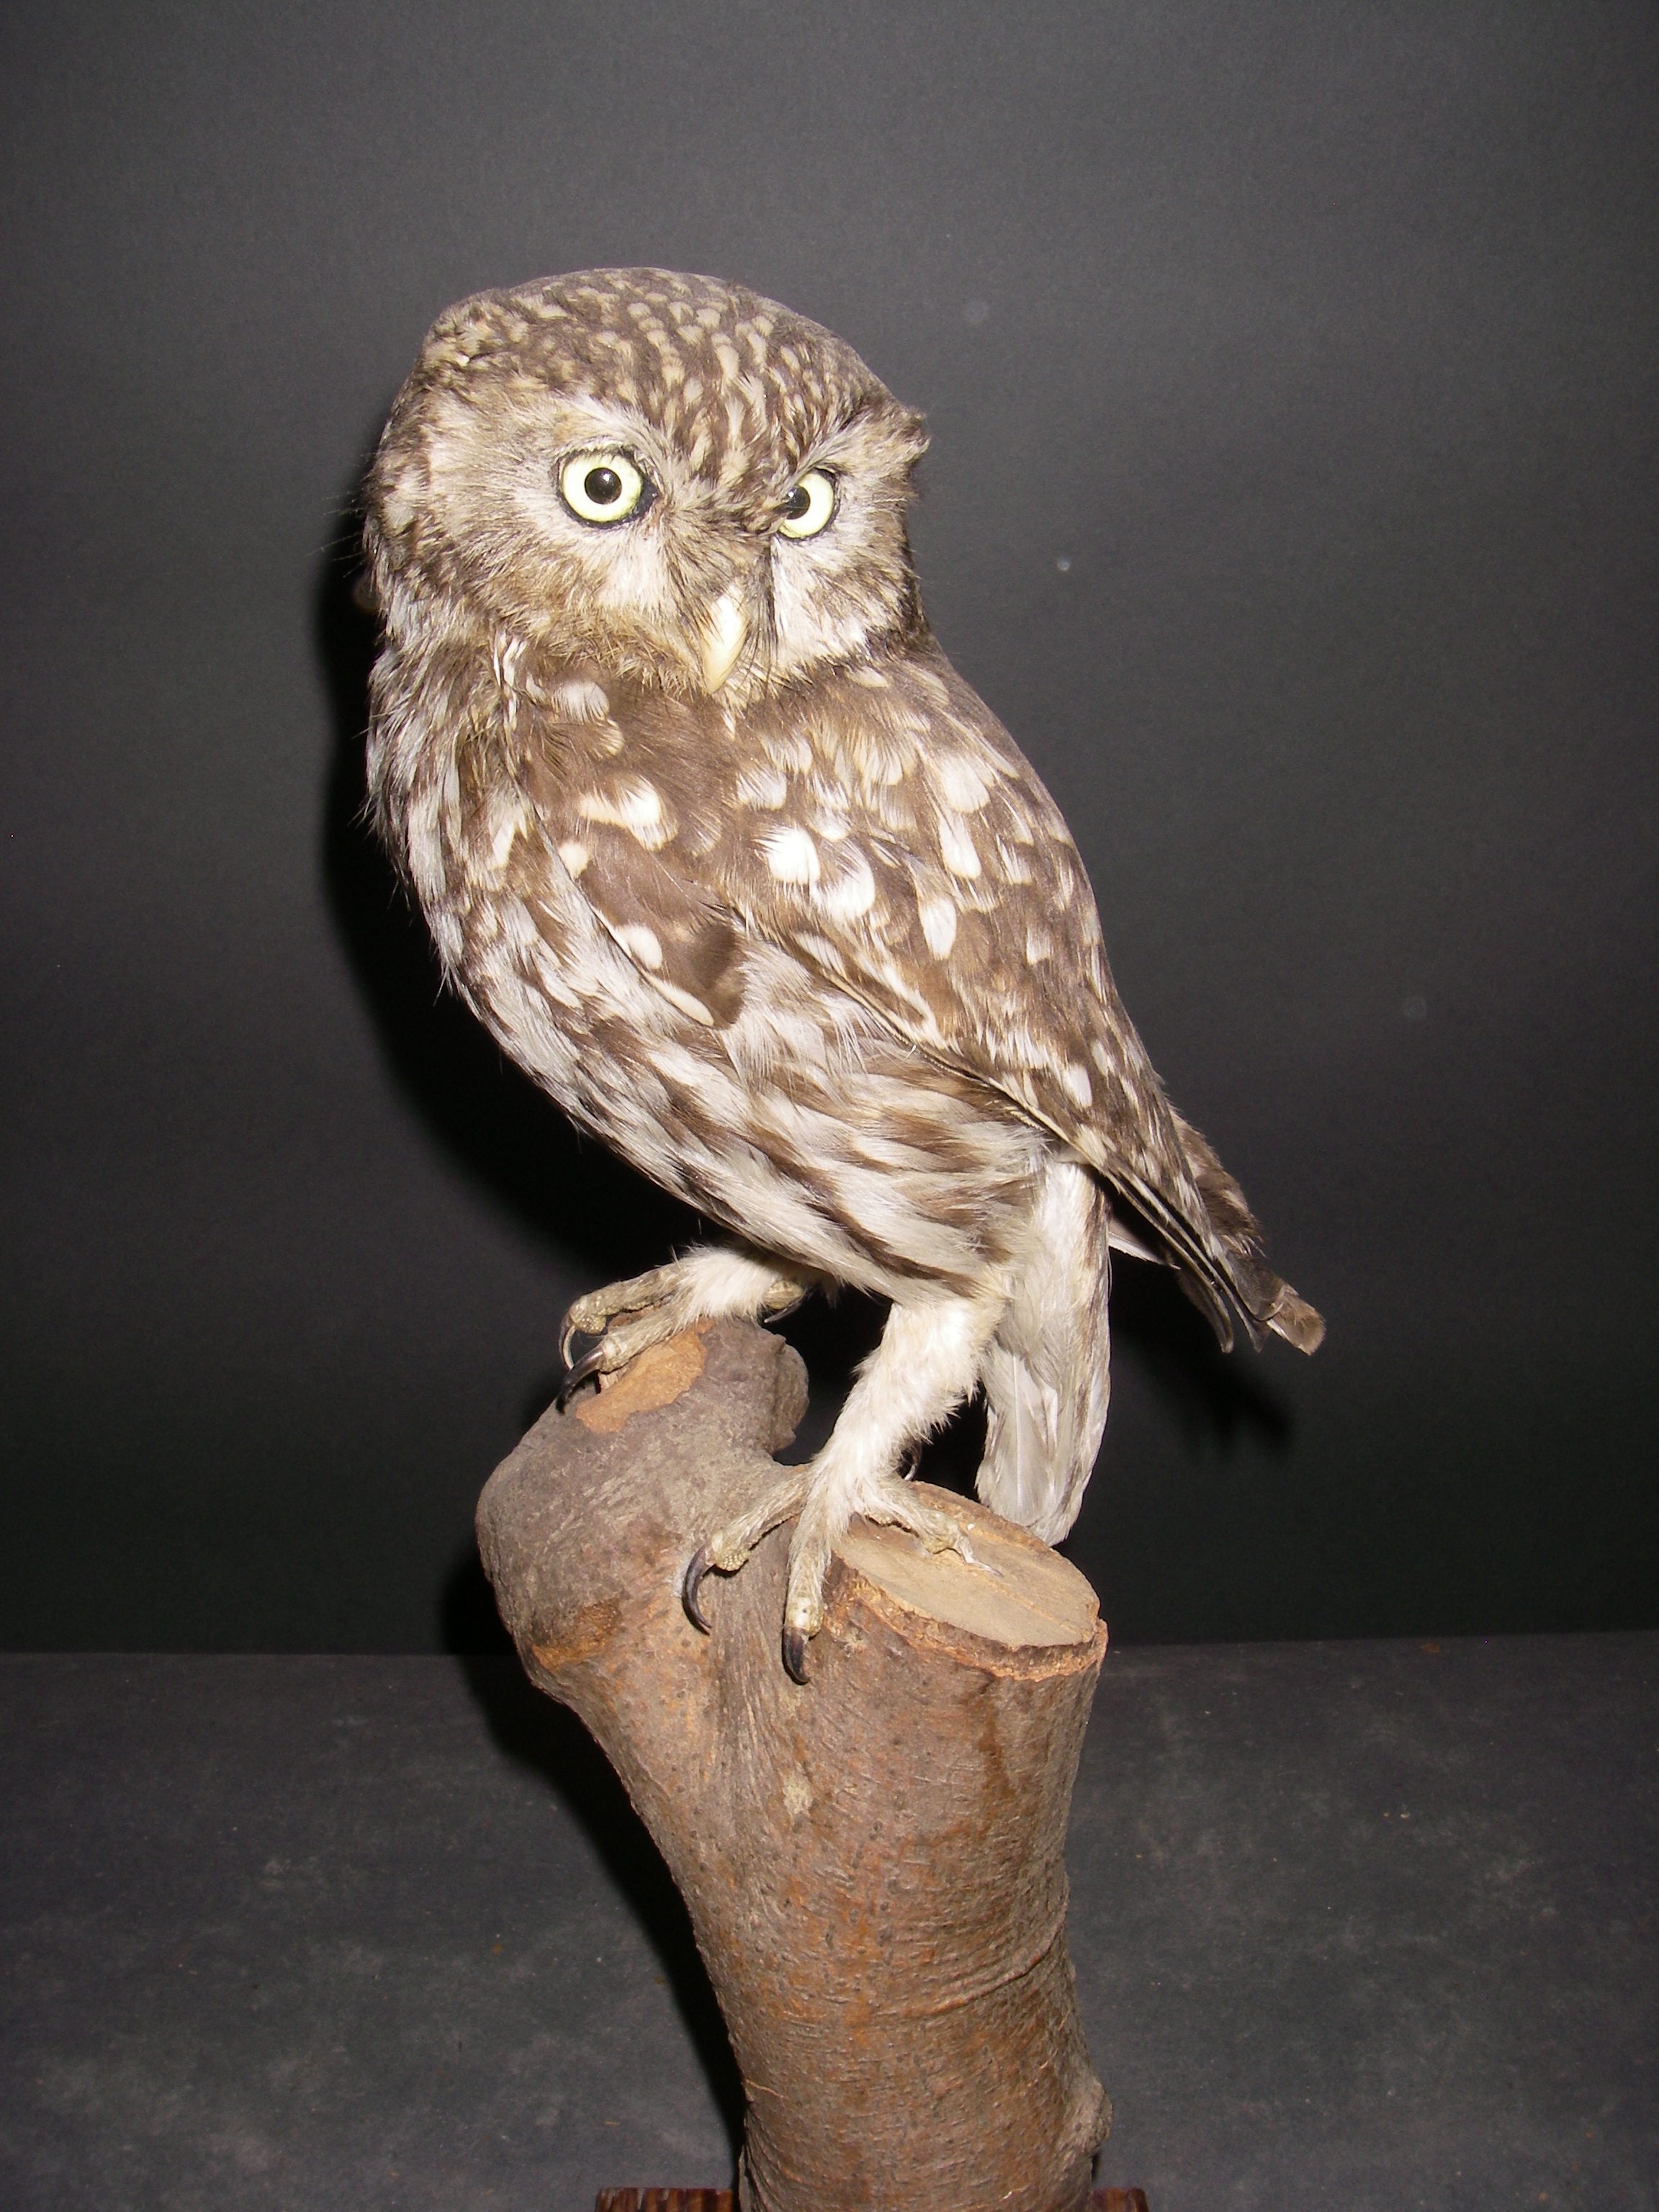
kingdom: Animalia
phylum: Chordata
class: Aves
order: Strigiformes
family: Strigidae
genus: Athene
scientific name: Athene noctua
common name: Little owl
